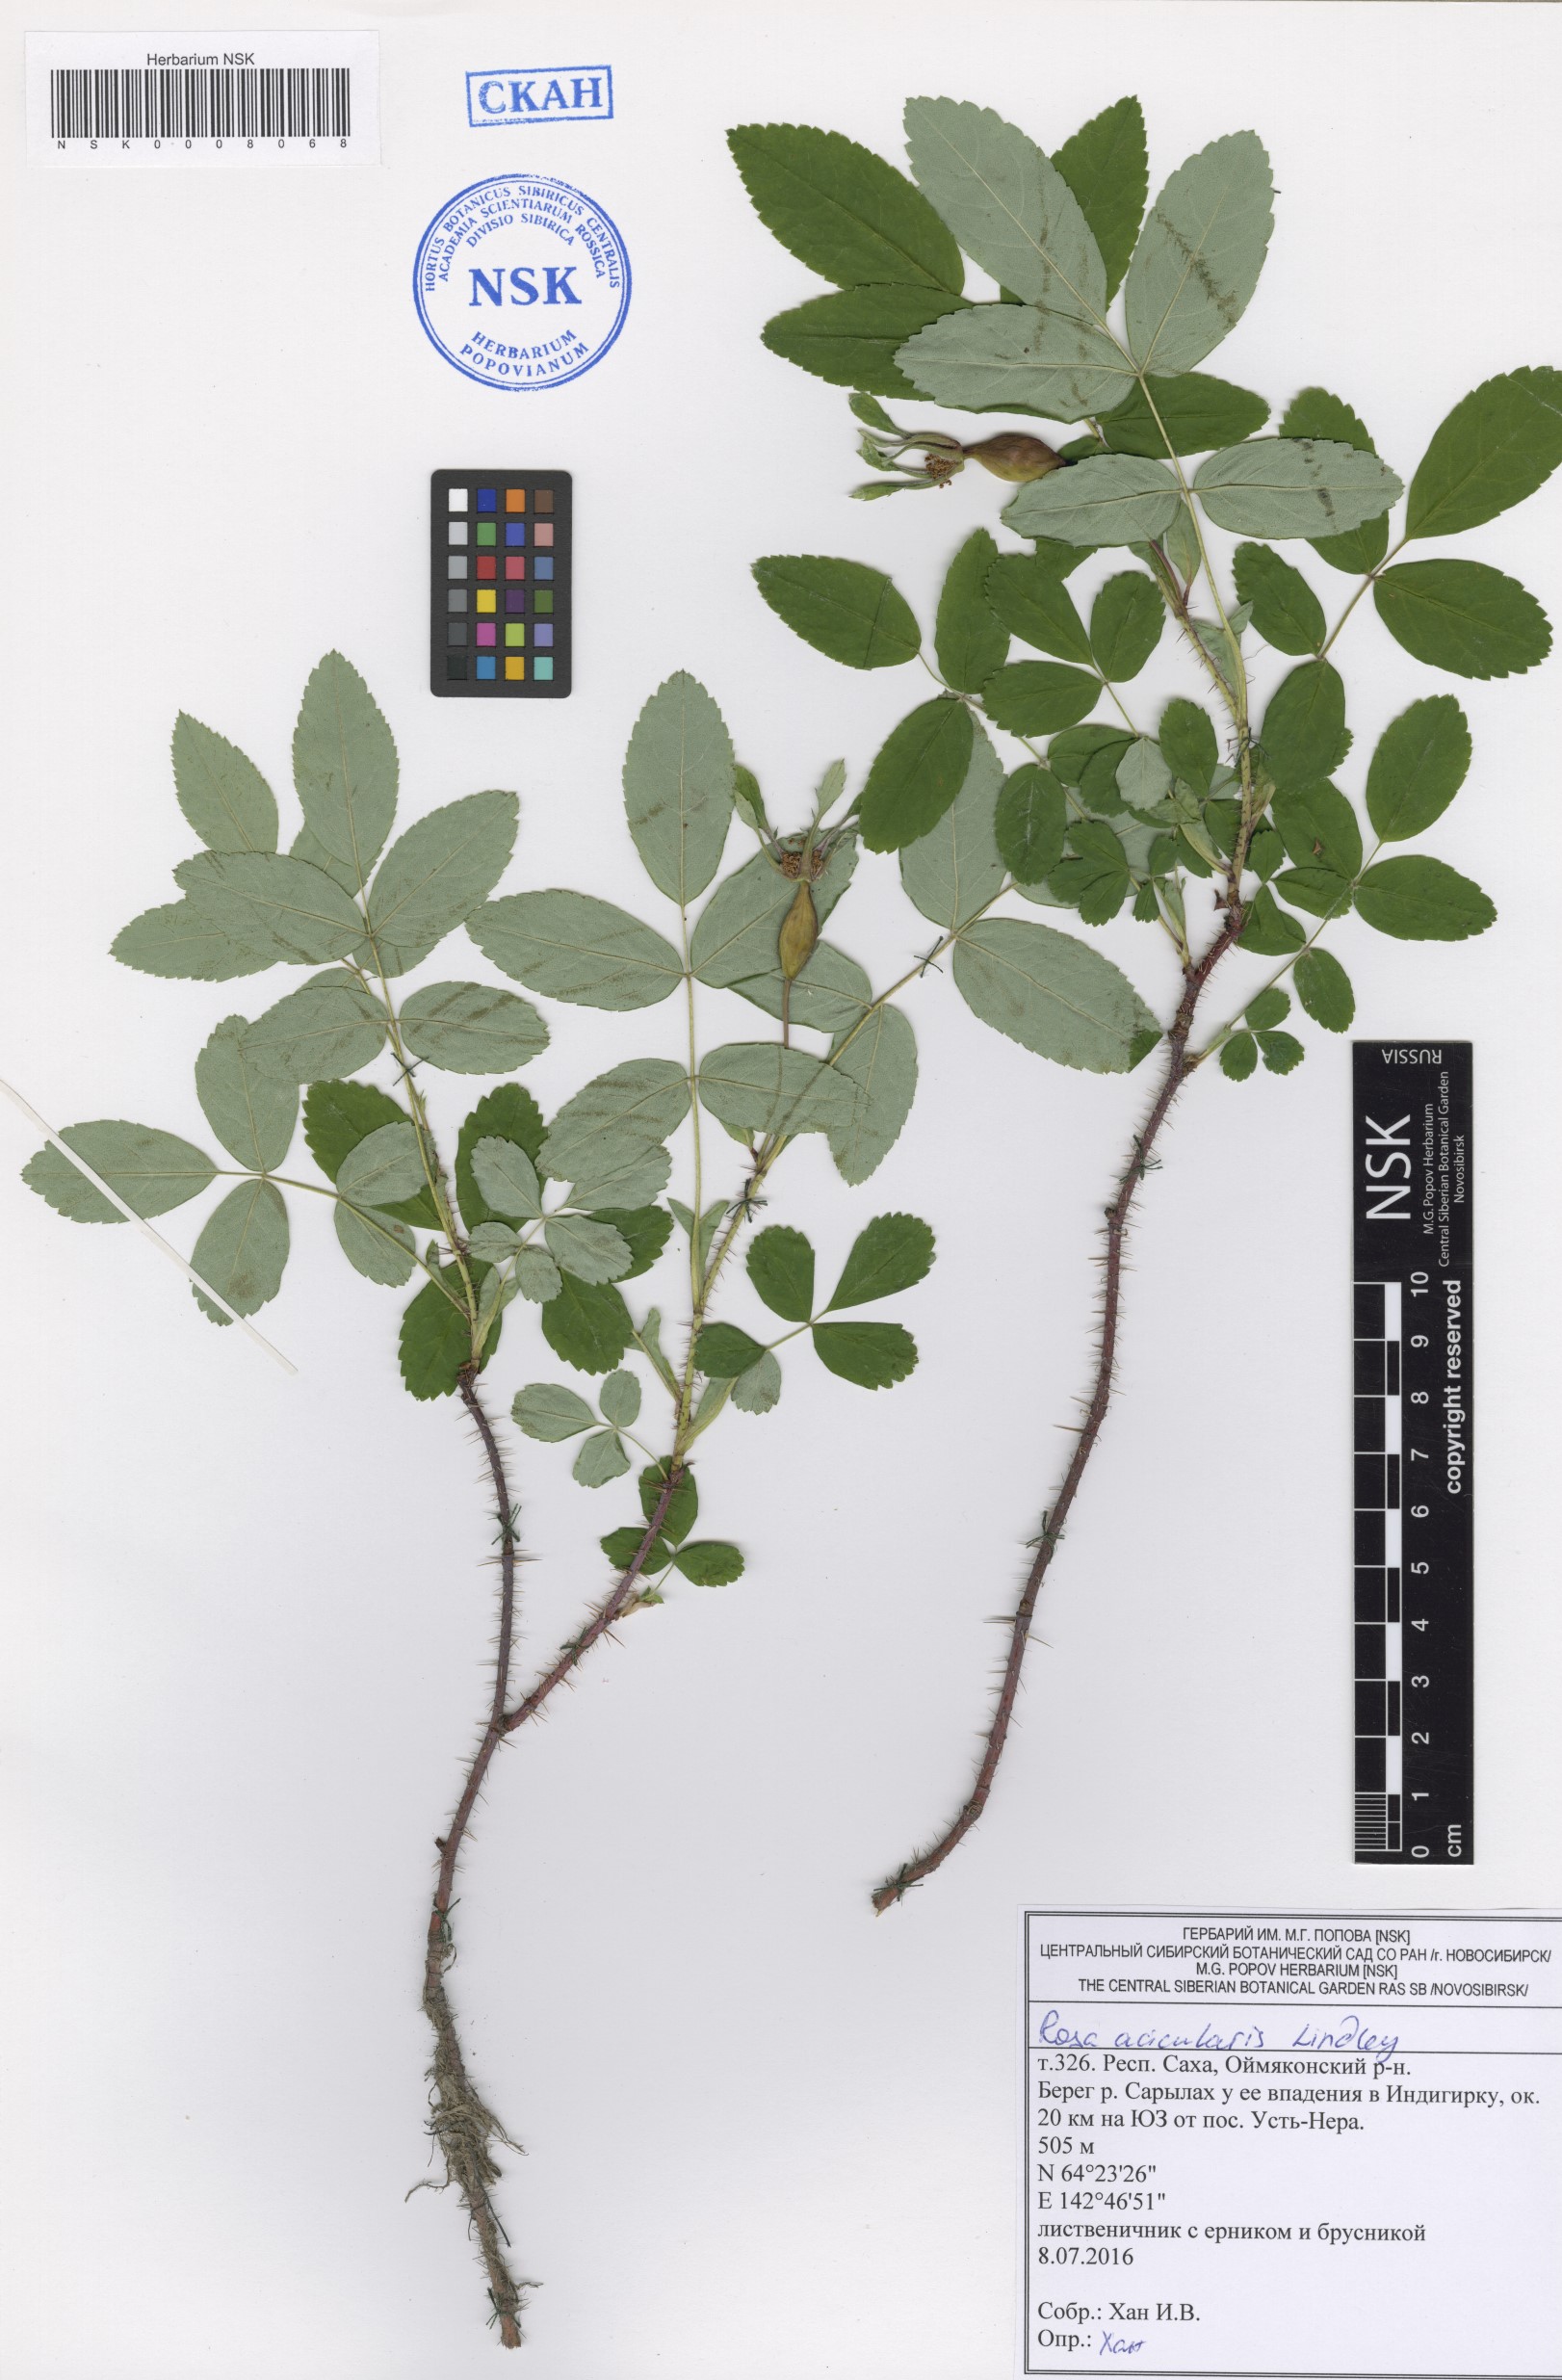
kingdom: Plantae
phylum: Tracheophyta
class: Magnoliopsida
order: Rosales
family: Rosaceae
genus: Rosa
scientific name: Rosa acicularis
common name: Prickly rose
